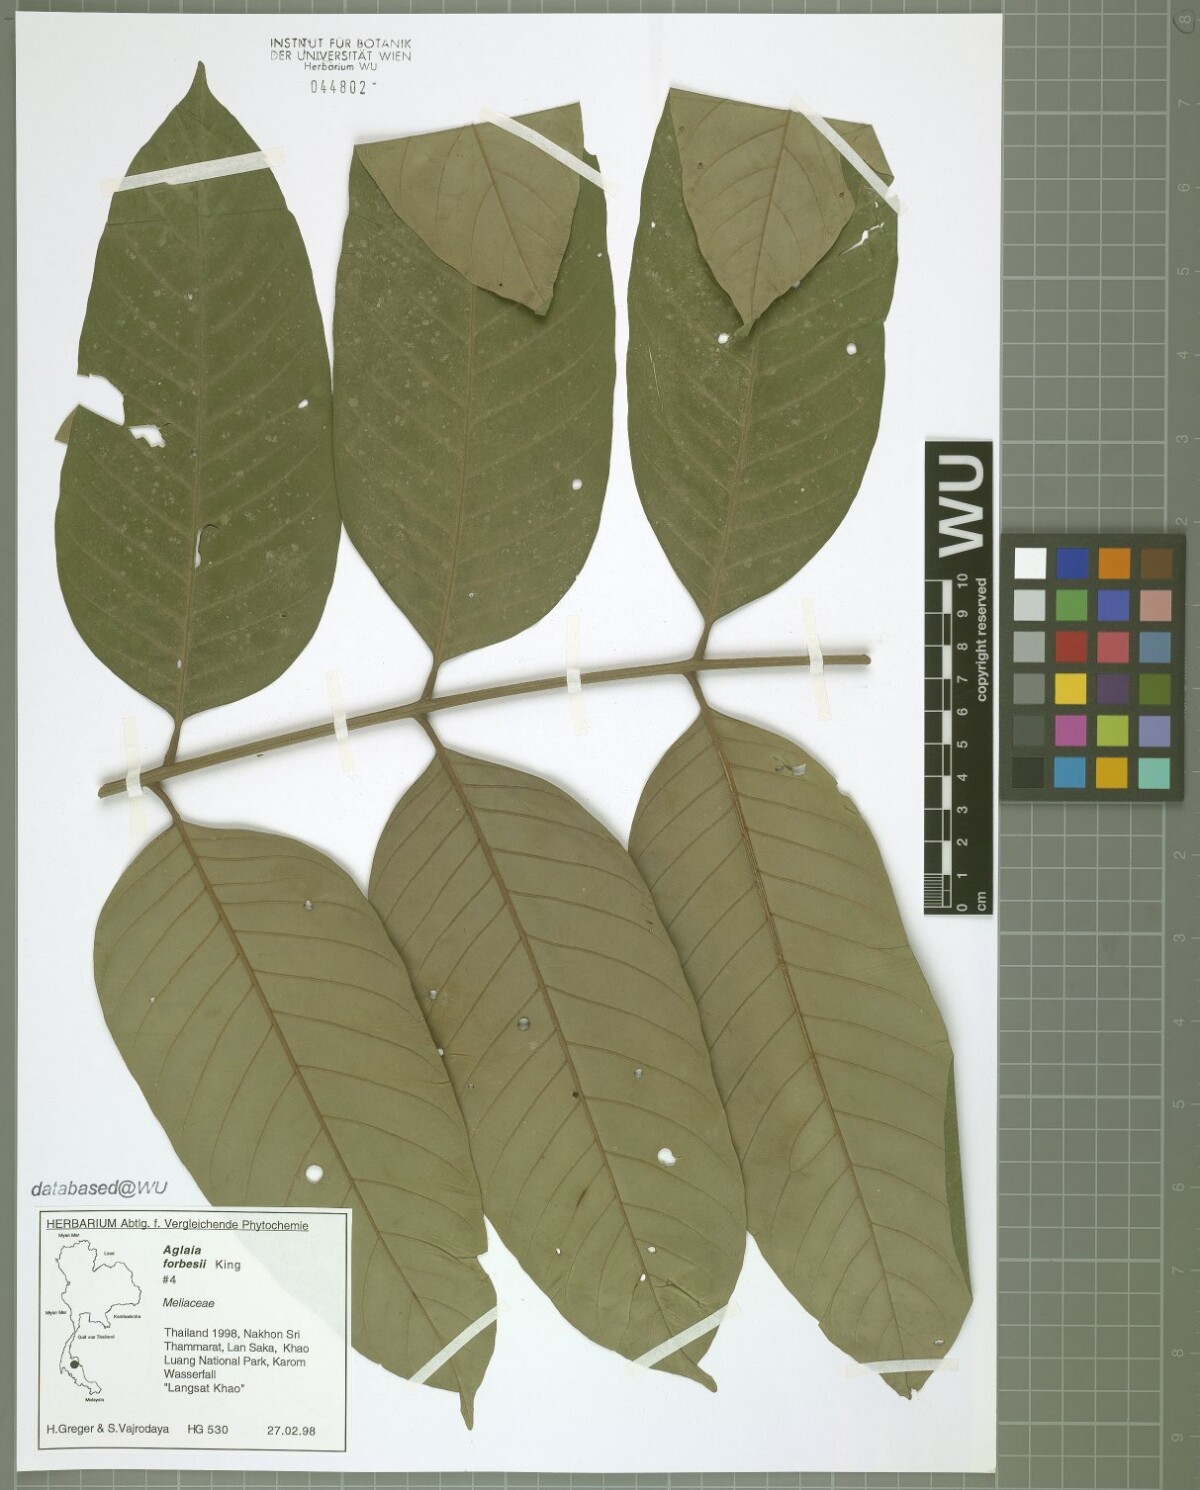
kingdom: Plantae
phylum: Tracheophyta
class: Magnoliopsida
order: Sapindales
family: Meliaceae
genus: Aglaia
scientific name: Aglaia forbesii
